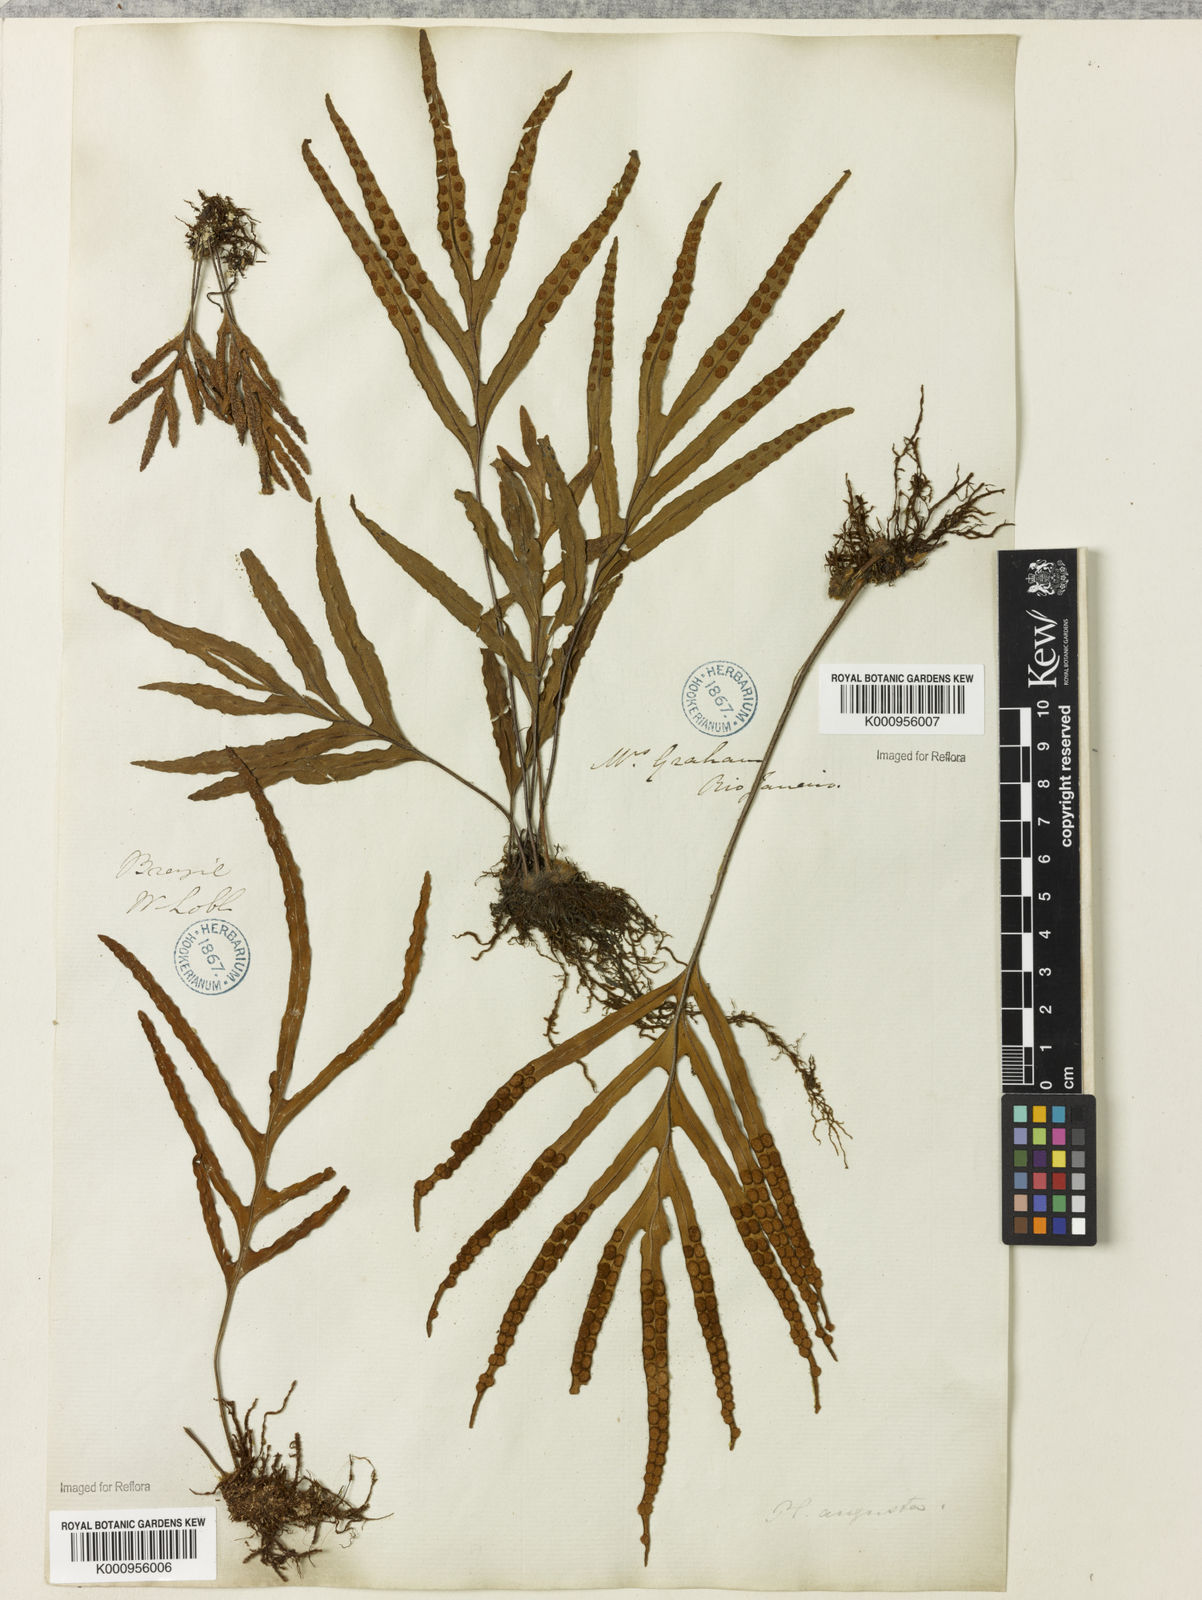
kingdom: Plantae
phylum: Tracheophyta
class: Polypodiopsida
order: Polypodiales
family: Polypodiaceae
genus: Pleopeltis
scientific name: Pleopeltis angusta
